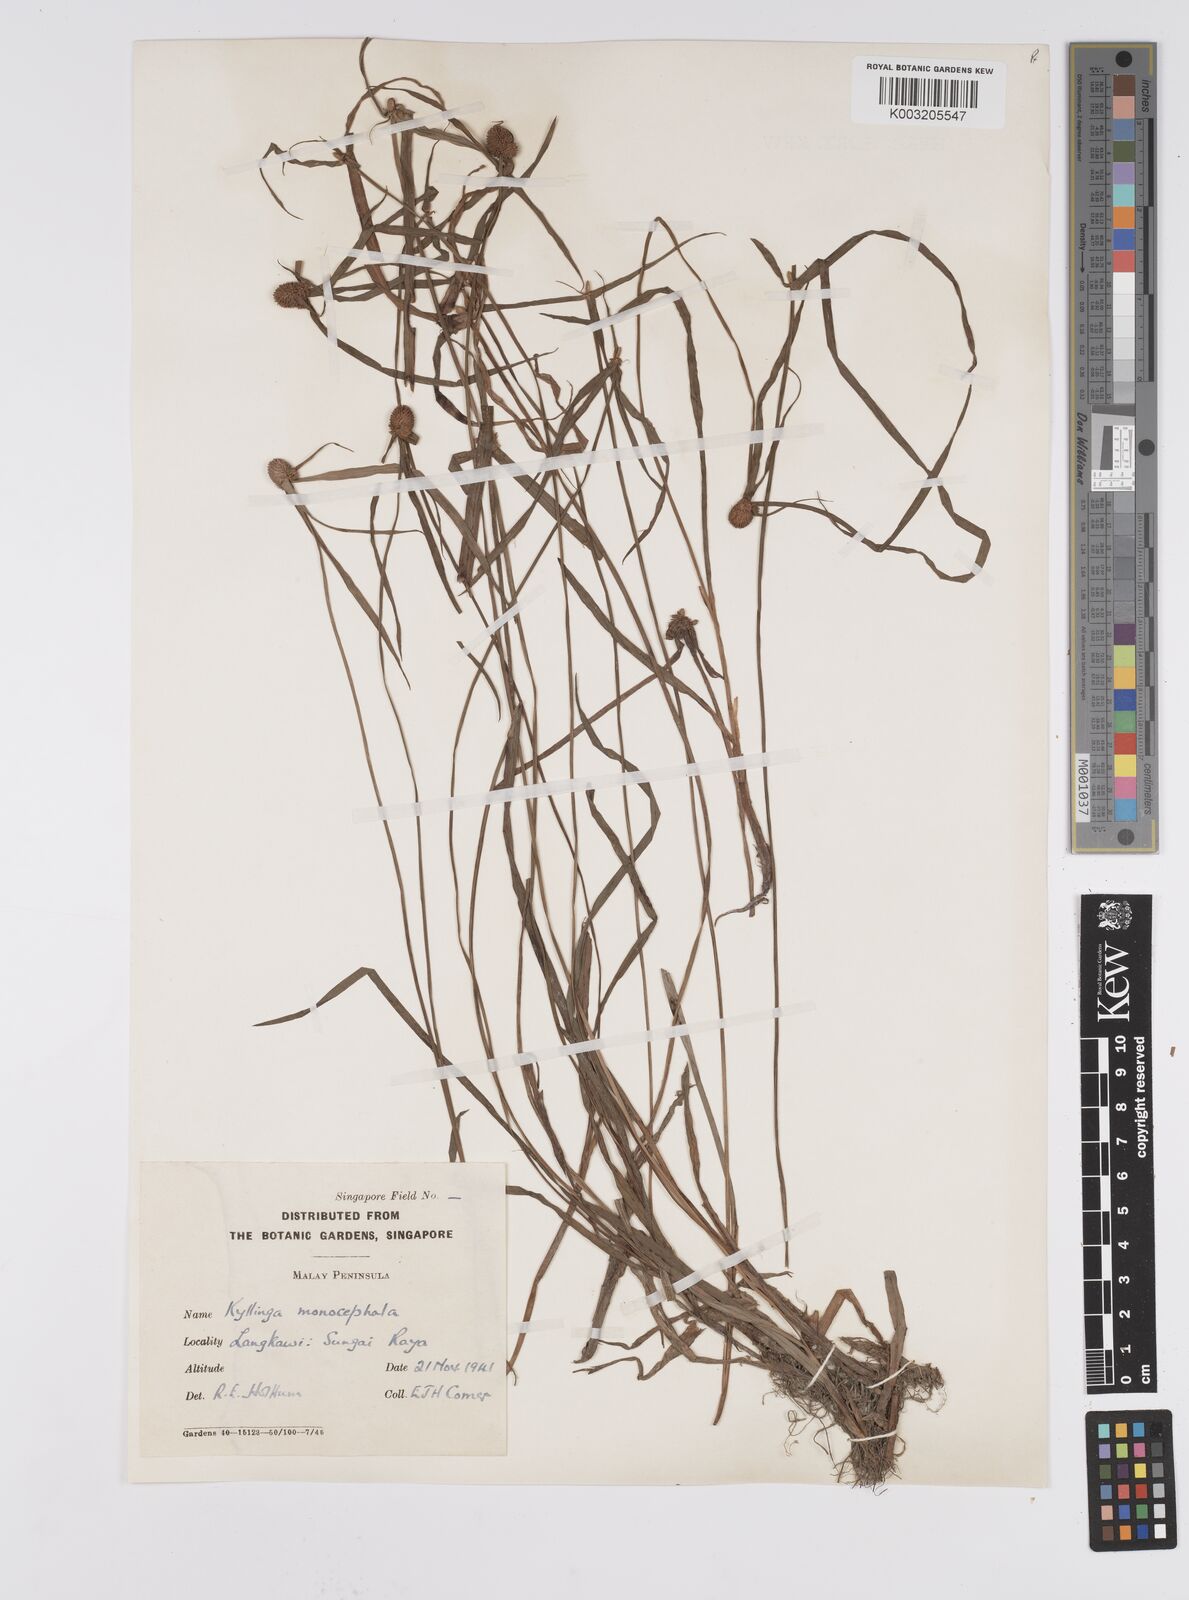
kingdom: Plantae
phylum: Tracheophyta
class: Liliopsida
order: Poales
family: Cyperaceae
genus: Cyperus
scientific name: Cyperus nemoralis
